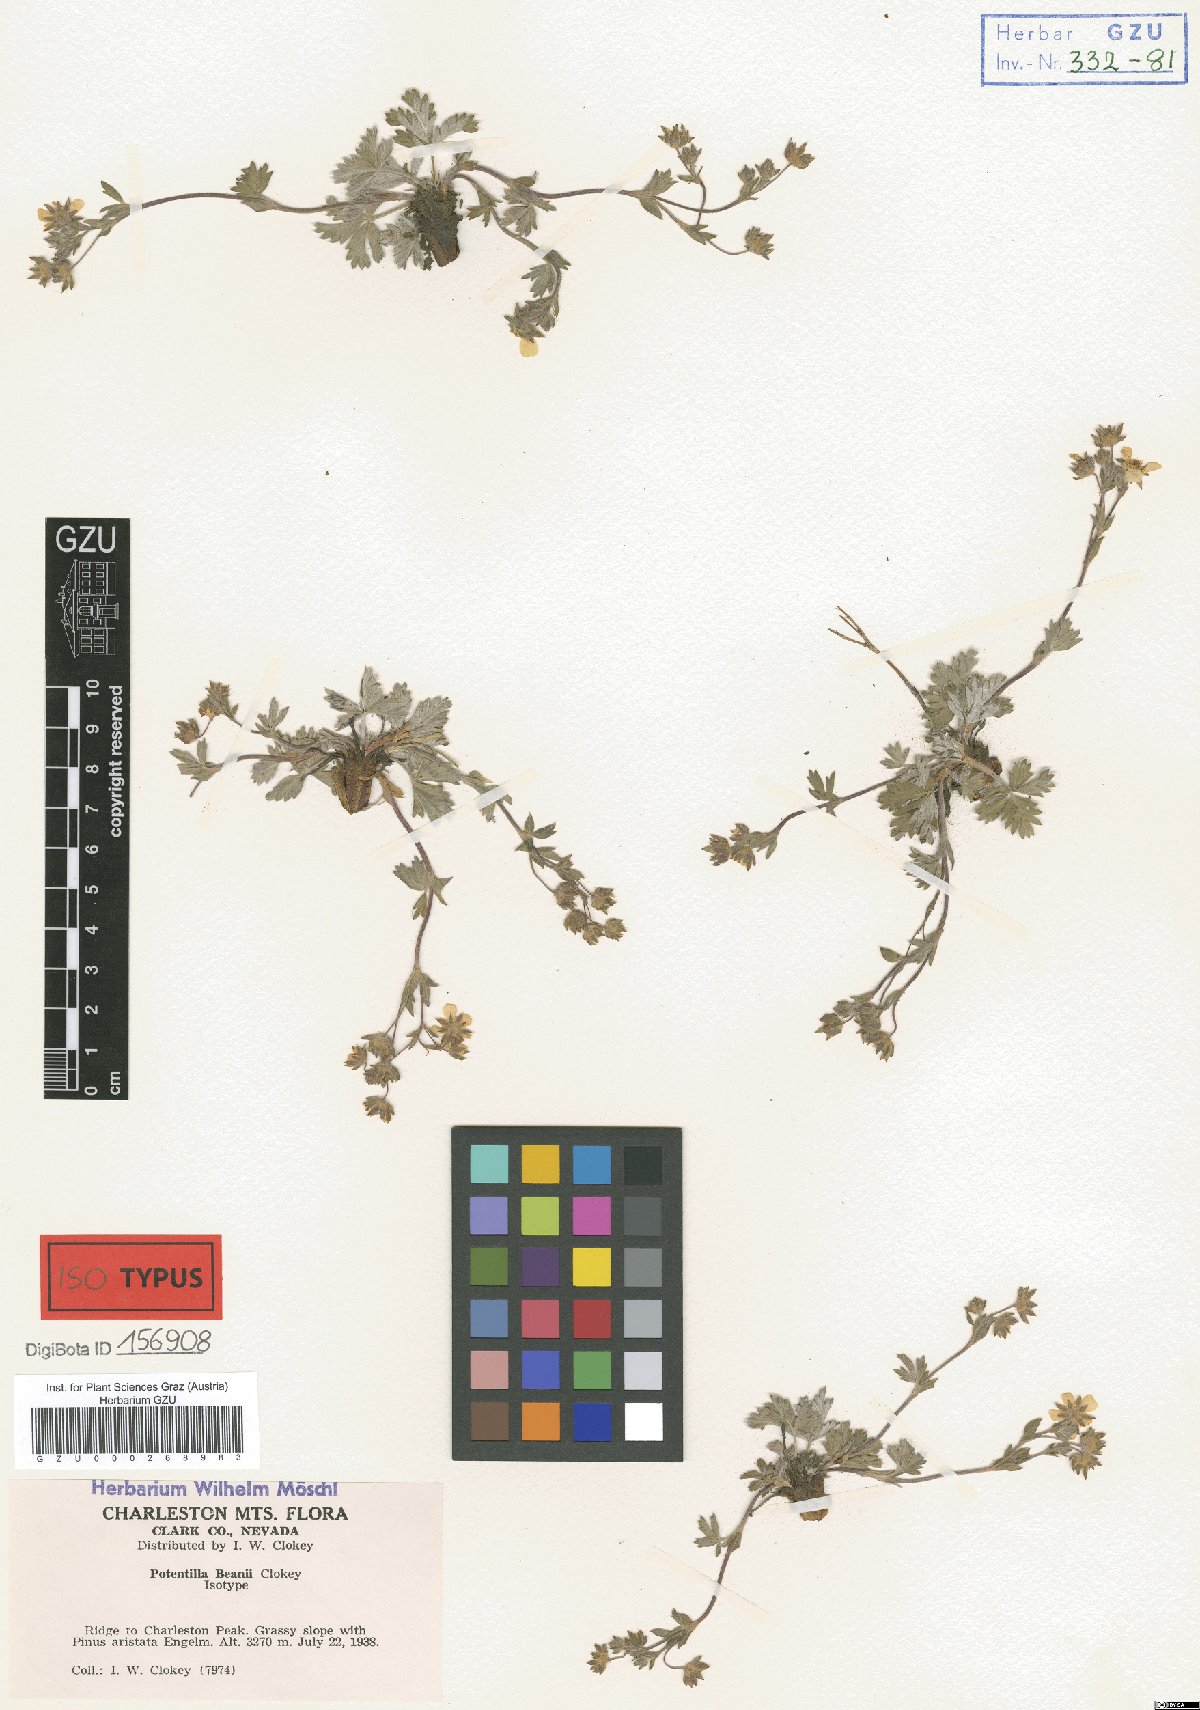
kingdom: Plantae
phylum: Tracheophyta
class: Magnoliopsida
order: Rosales
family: Rosaceae
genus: Potentilla
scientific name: Potentilla concinna
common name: Early cinquefoil
